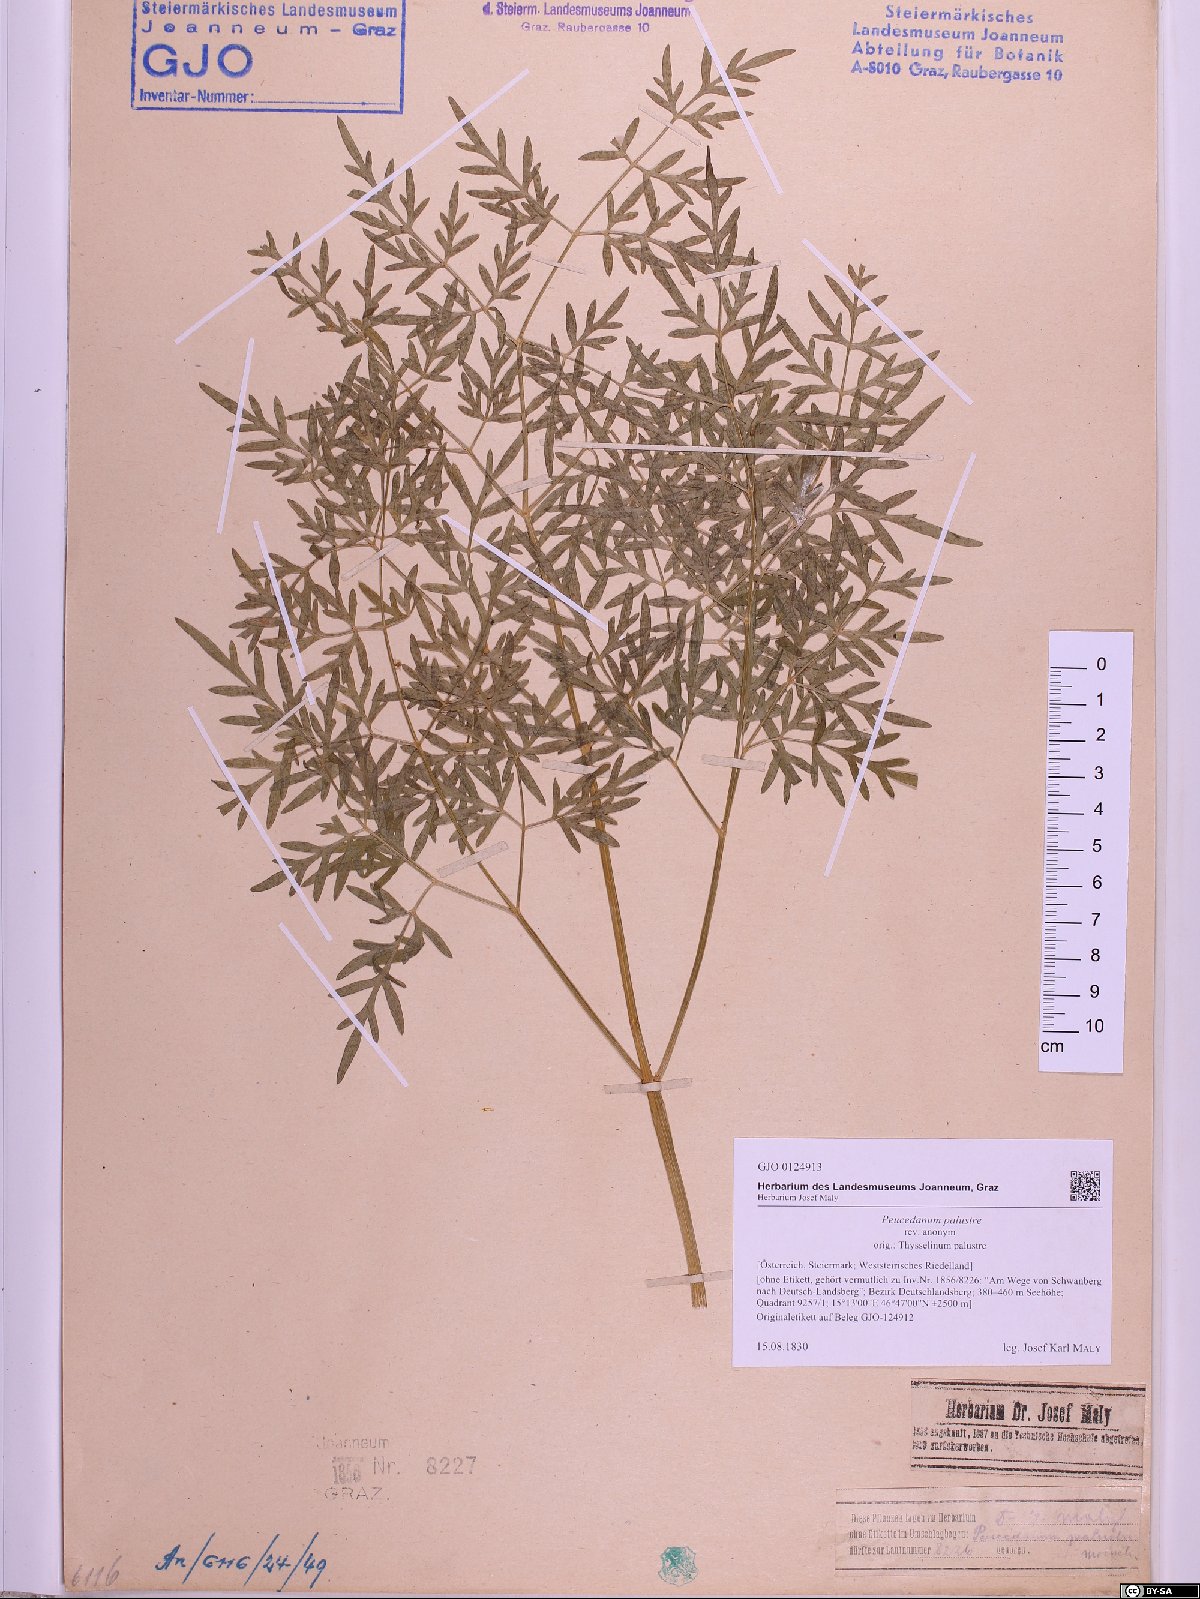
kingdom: Plantae
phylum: Tracheophyta
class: Magnoliopsida
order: Apiales
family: Apiaceae
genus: Thysselinum
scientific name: Thysselinum palustre
